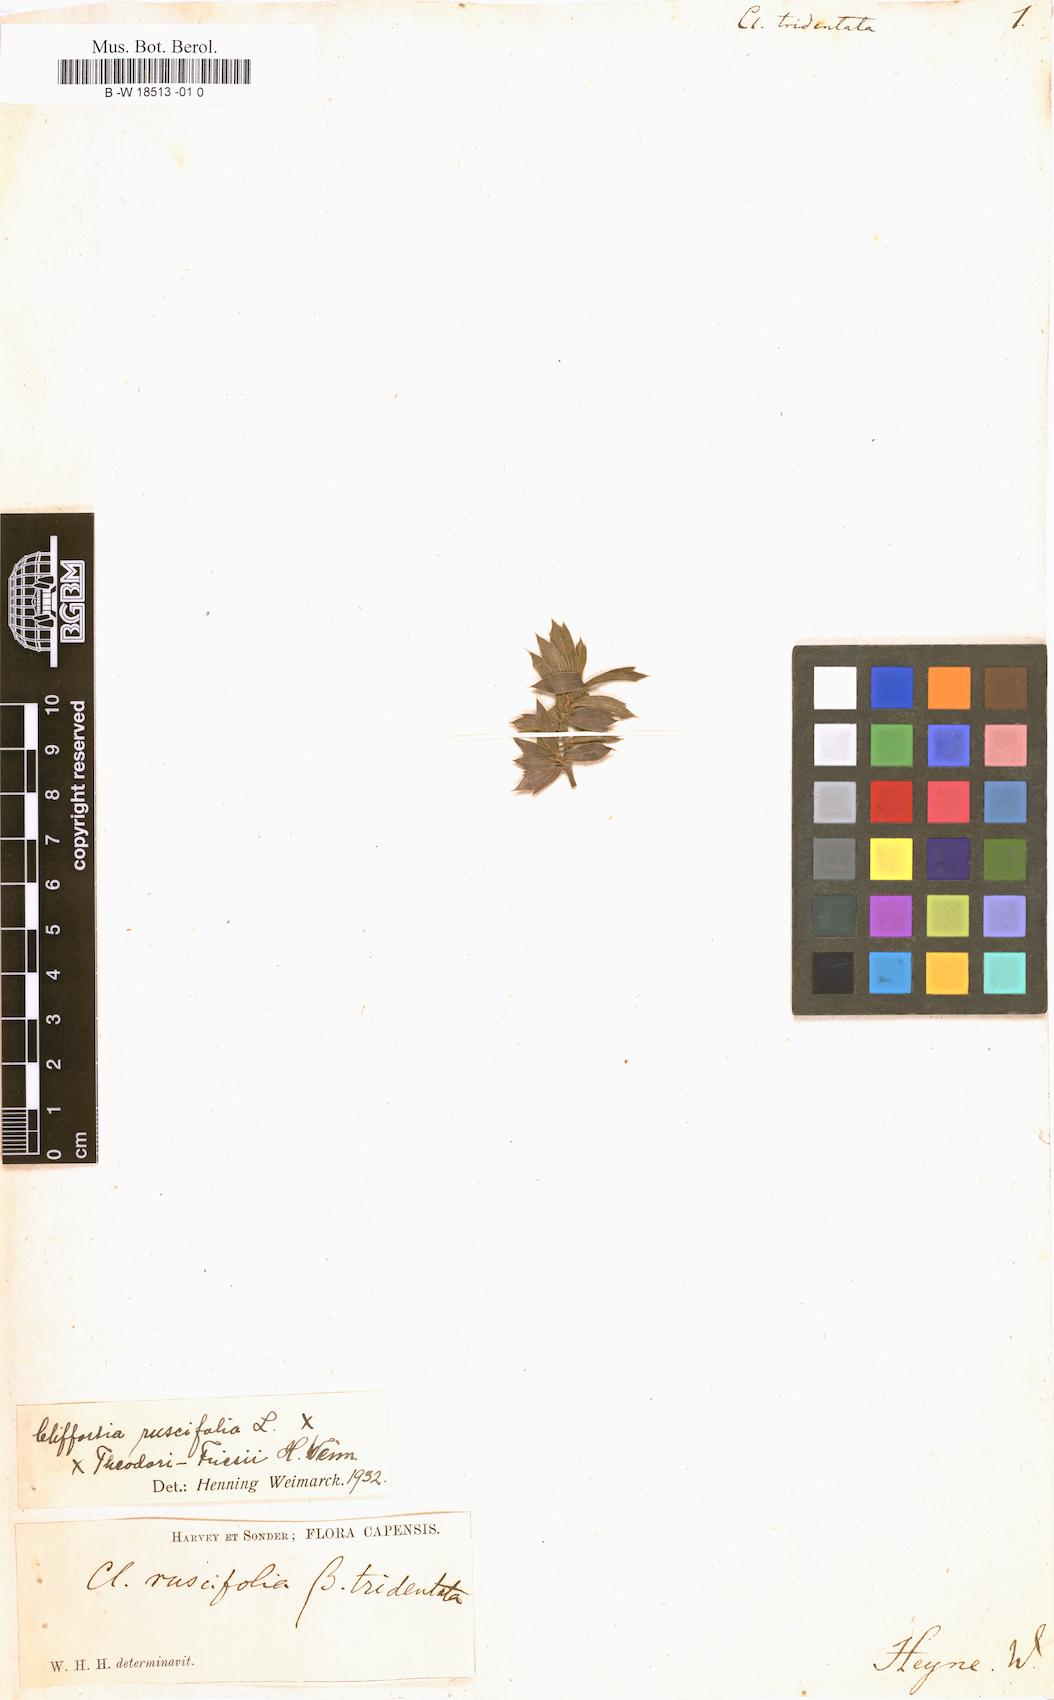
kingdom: Plantae
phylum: Tracheophyta
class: Magnoliopsida
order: Rosales
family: Rosaceae
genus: Cliffortia
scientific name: Cliffortia tridentata
